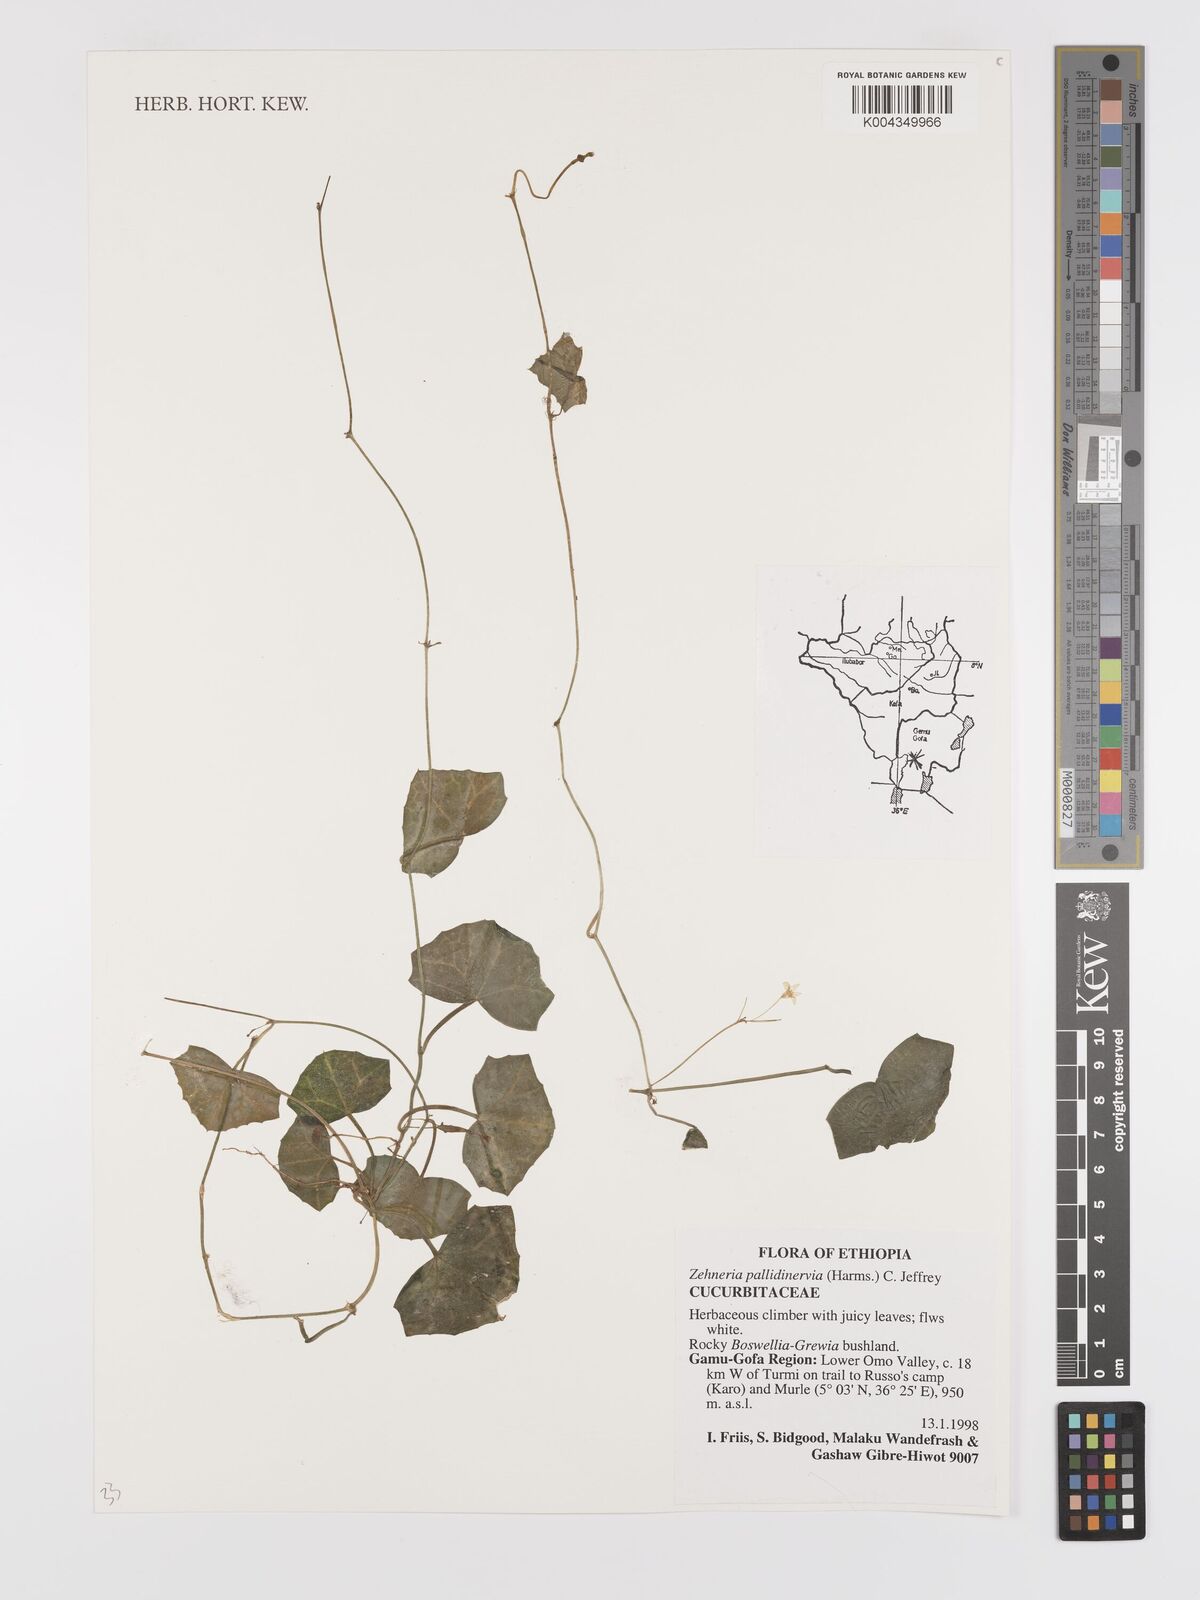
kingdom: Plantae
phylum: Tracheophyta
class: Magnoliopsida
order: Cucurbitales
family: Cucurbitaceae
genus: Zehneria
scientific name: Zehneria pallidinervia
